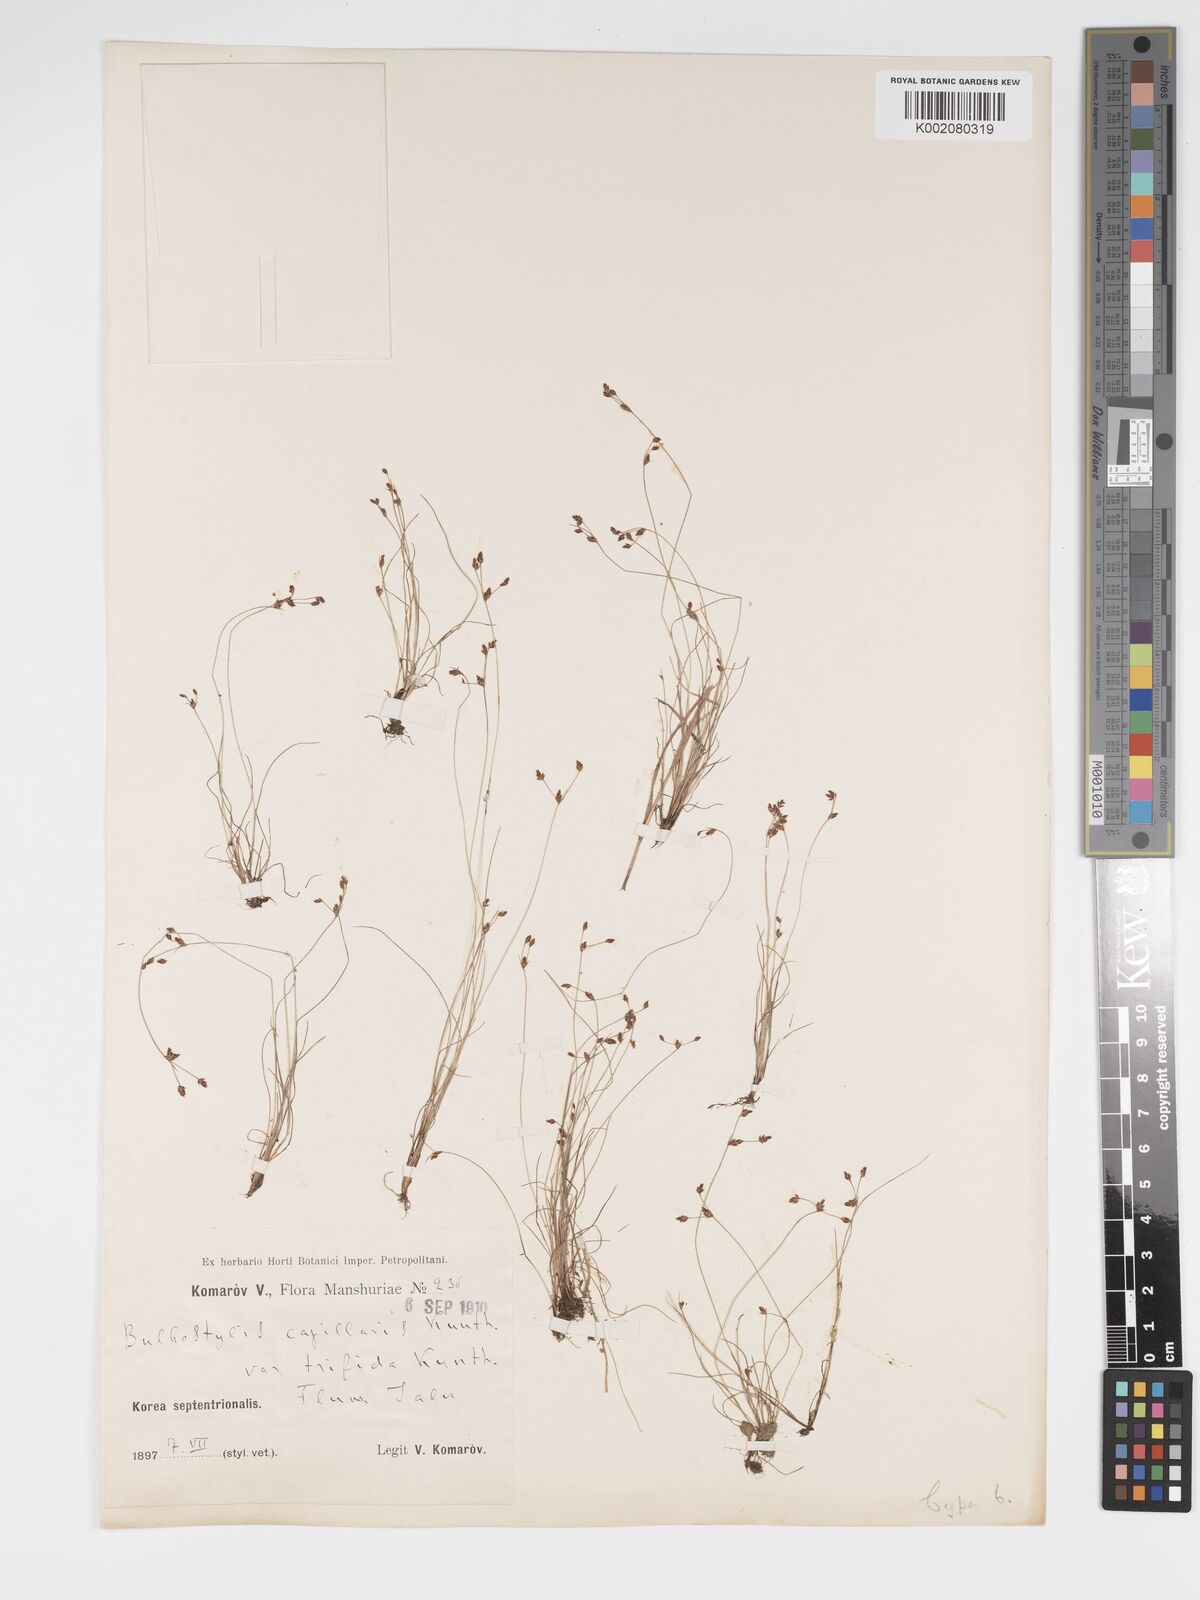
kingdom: Plantae
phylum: Tracheophyta
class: Liliopsida
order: Poales
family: Cyperaceae
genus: Bulbostylis
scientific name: Bulbostylis capillaris
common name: Densetuft hairsedge
